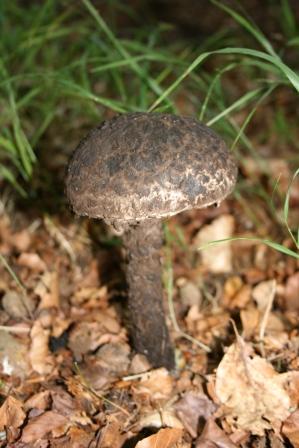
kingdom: Fungi
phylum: Basidiomycota
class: Agaricomycetes
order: Boletales
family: Boletaceae
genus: Strobilomyces
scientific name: Strobilomyces strobilaceus
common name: koglerørhat
